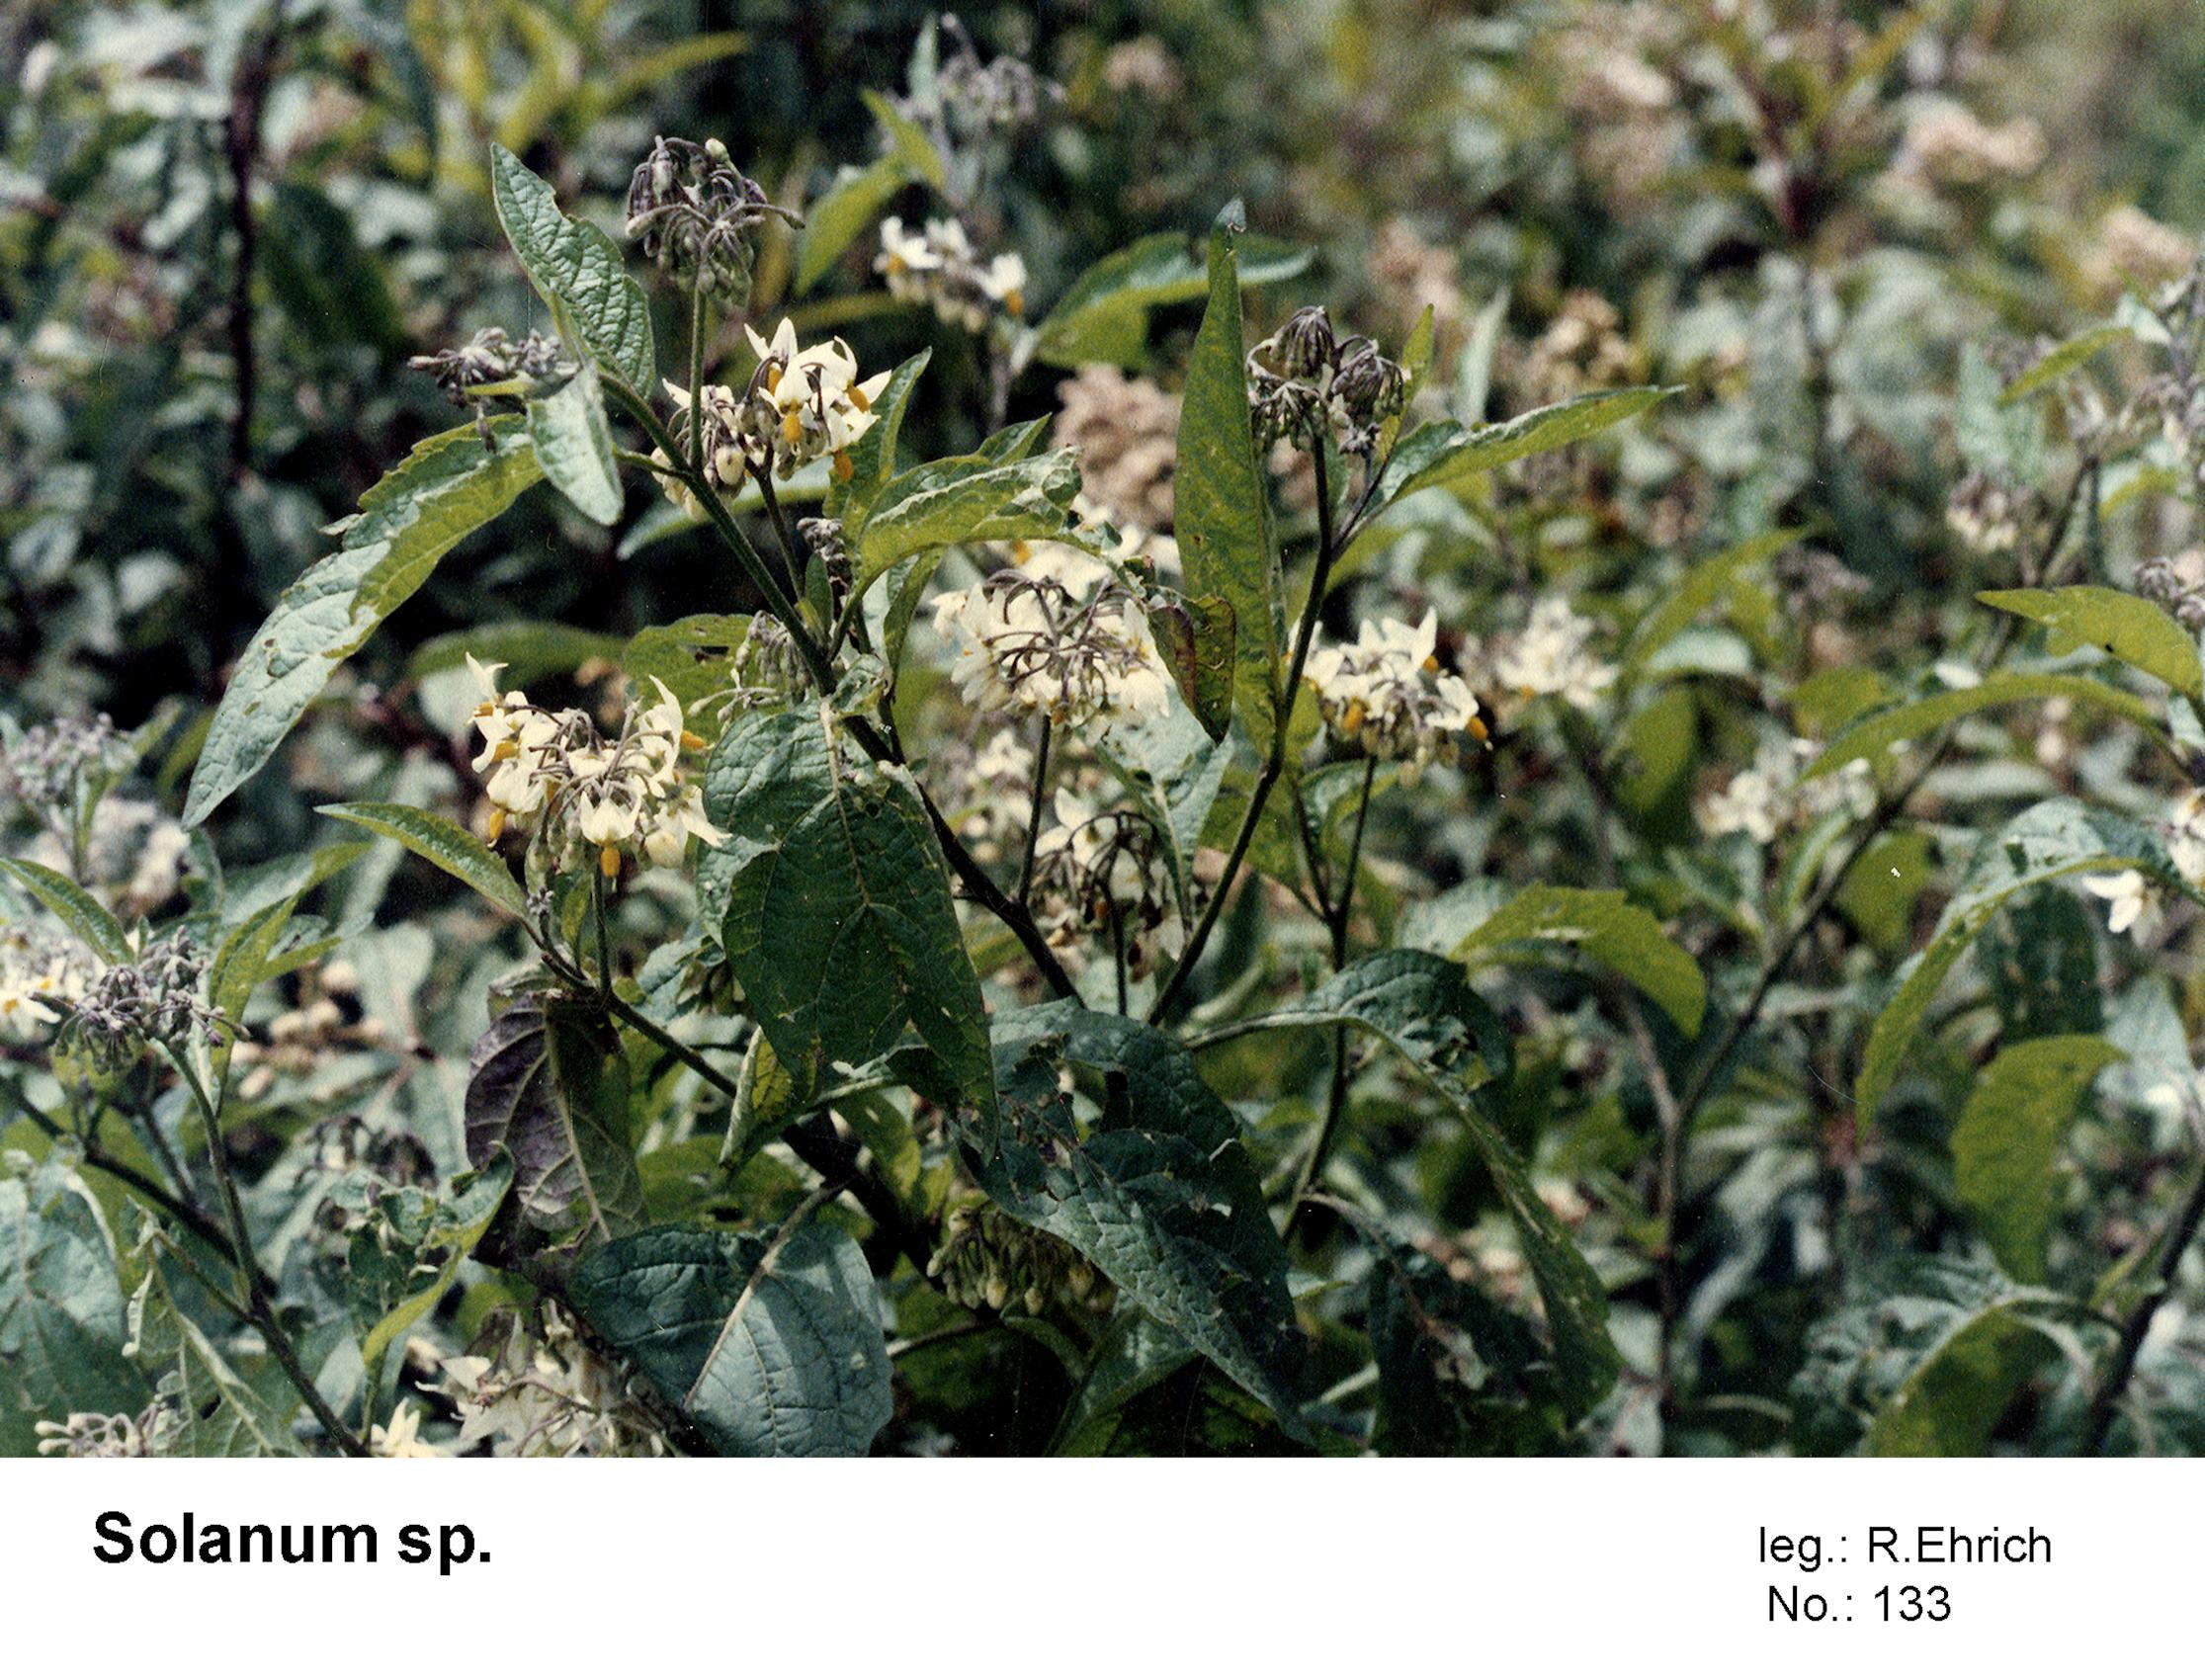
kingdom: Plantae
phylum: Tracheophyta
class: Magnoliopsida
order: Solanales
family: Solanaceae
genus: Solanum
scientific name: Solanum aloysiifolium
